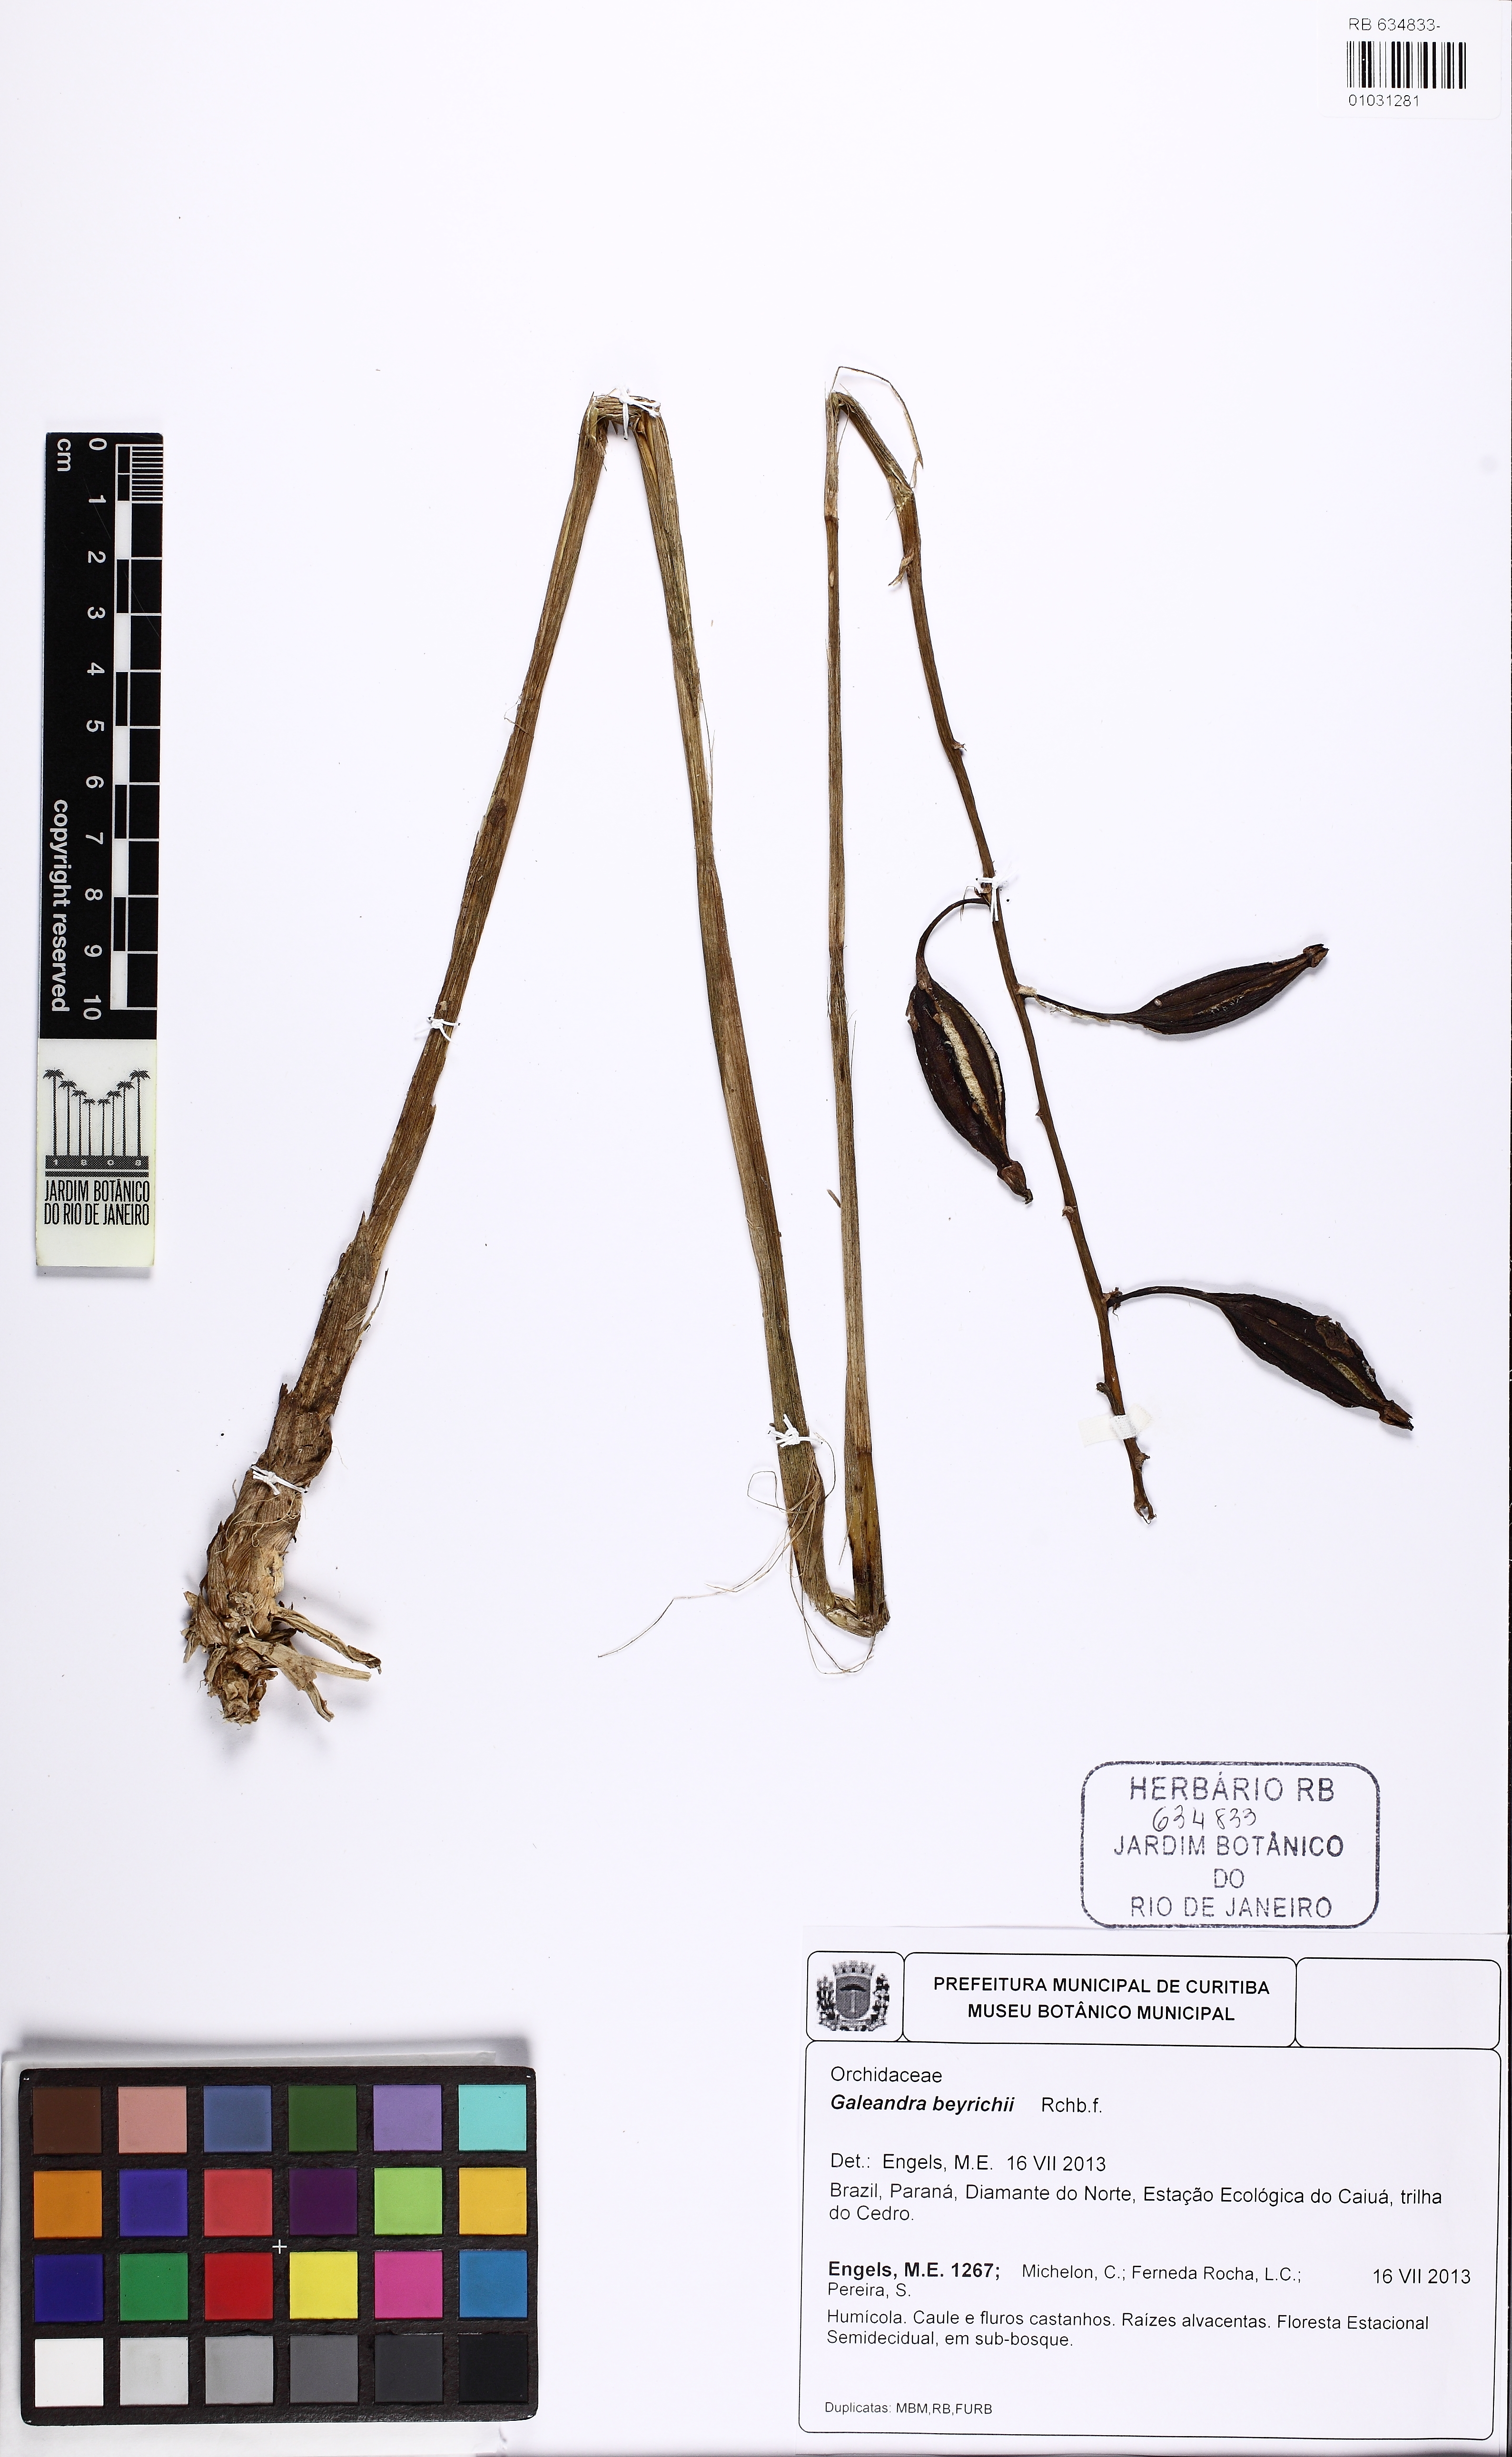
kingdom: Plantae
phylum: Tracheophyta
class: Liliopsida
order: Asparagales
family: Orchidaceae
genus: Galeandra
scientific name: Galeandra beyrichii
